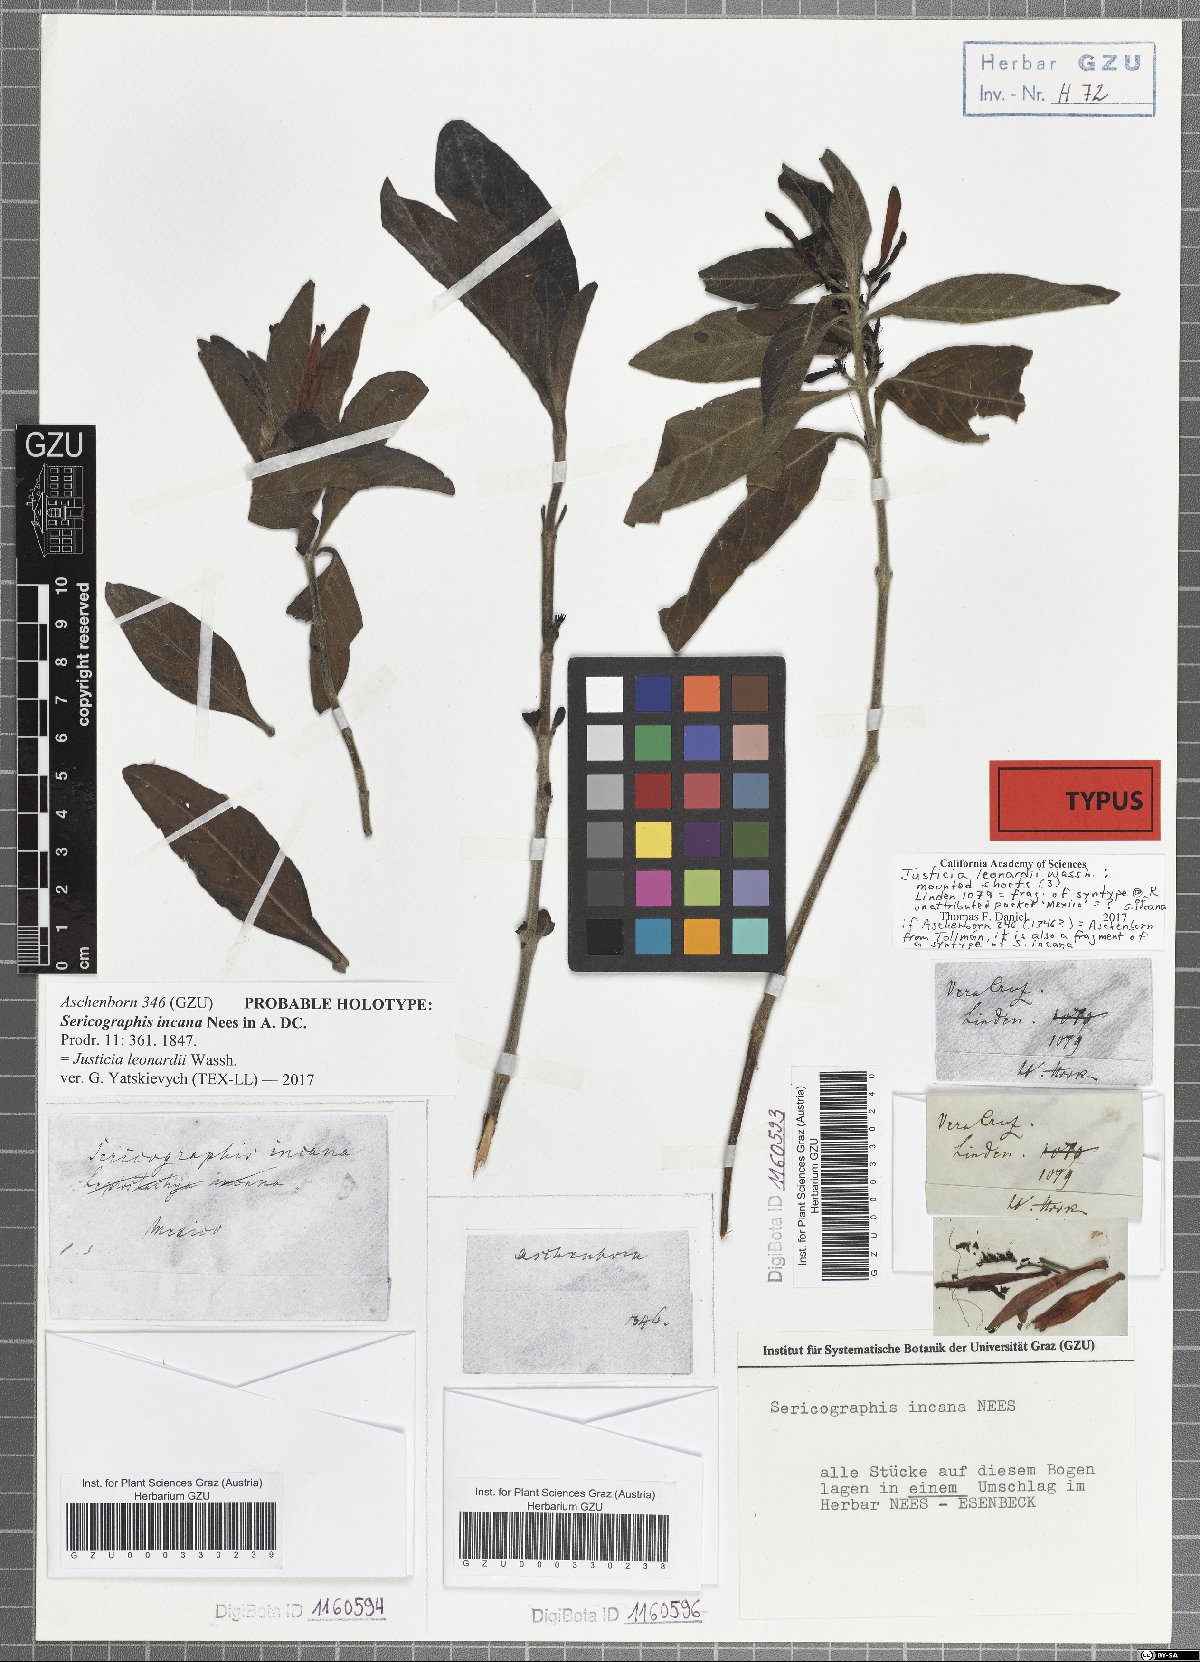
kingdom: Plantae
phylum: Tracheophyta
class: Magnoliopsida
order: Lamiales
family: Acanthaceae
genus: Justicia
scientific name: Justicia leonardii
